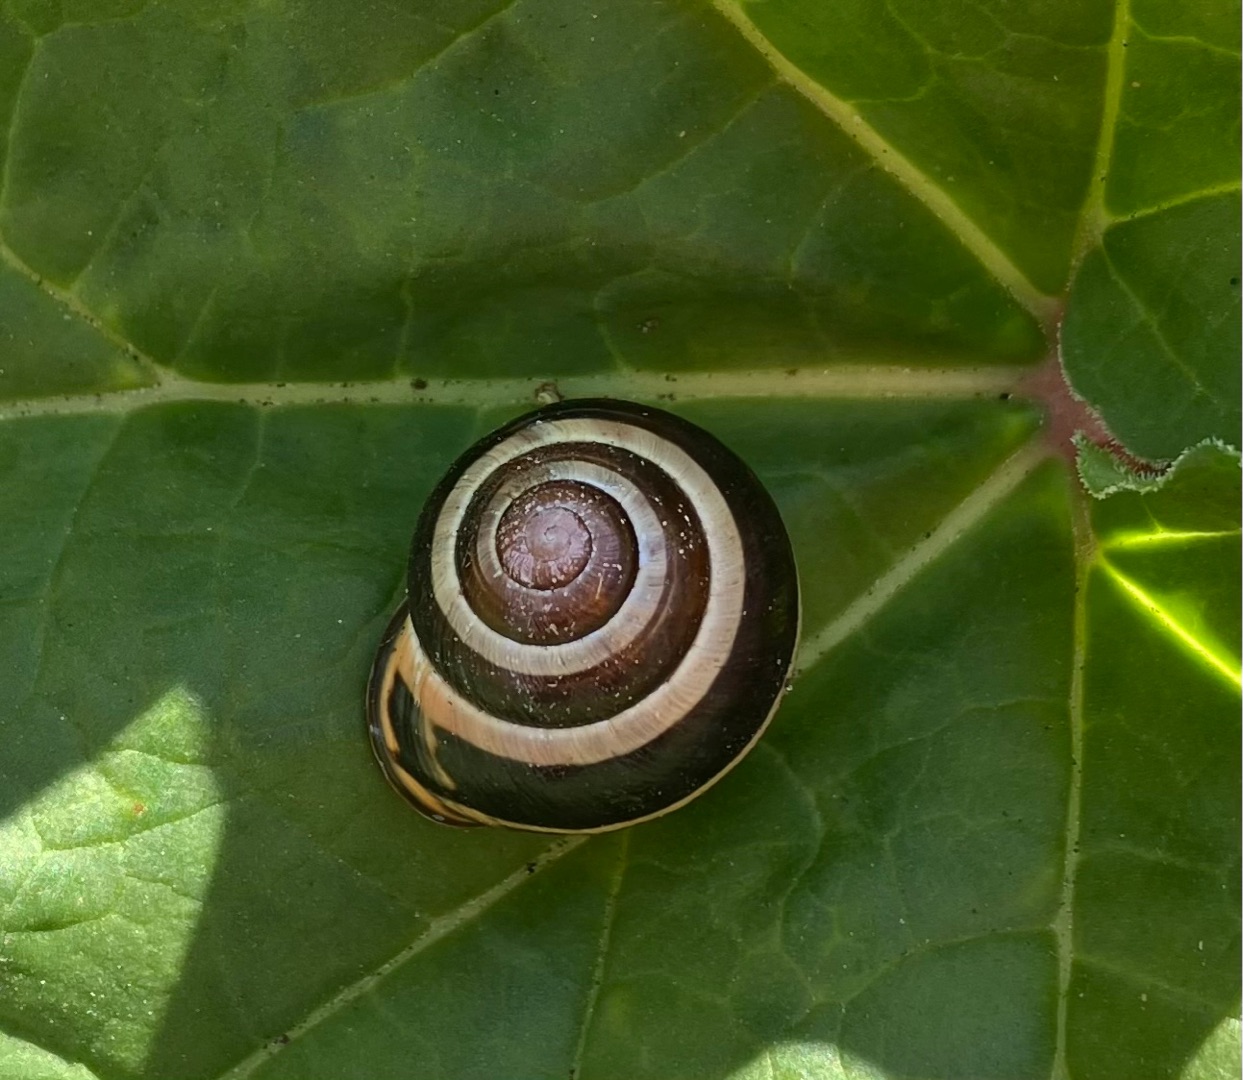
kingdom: Animalia
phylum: Mollusca
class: Gastropoda
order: Stylommatophora
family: Helicidae
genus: Cepaea
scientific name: Cepaea nemoralis
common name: Lundsnegl
